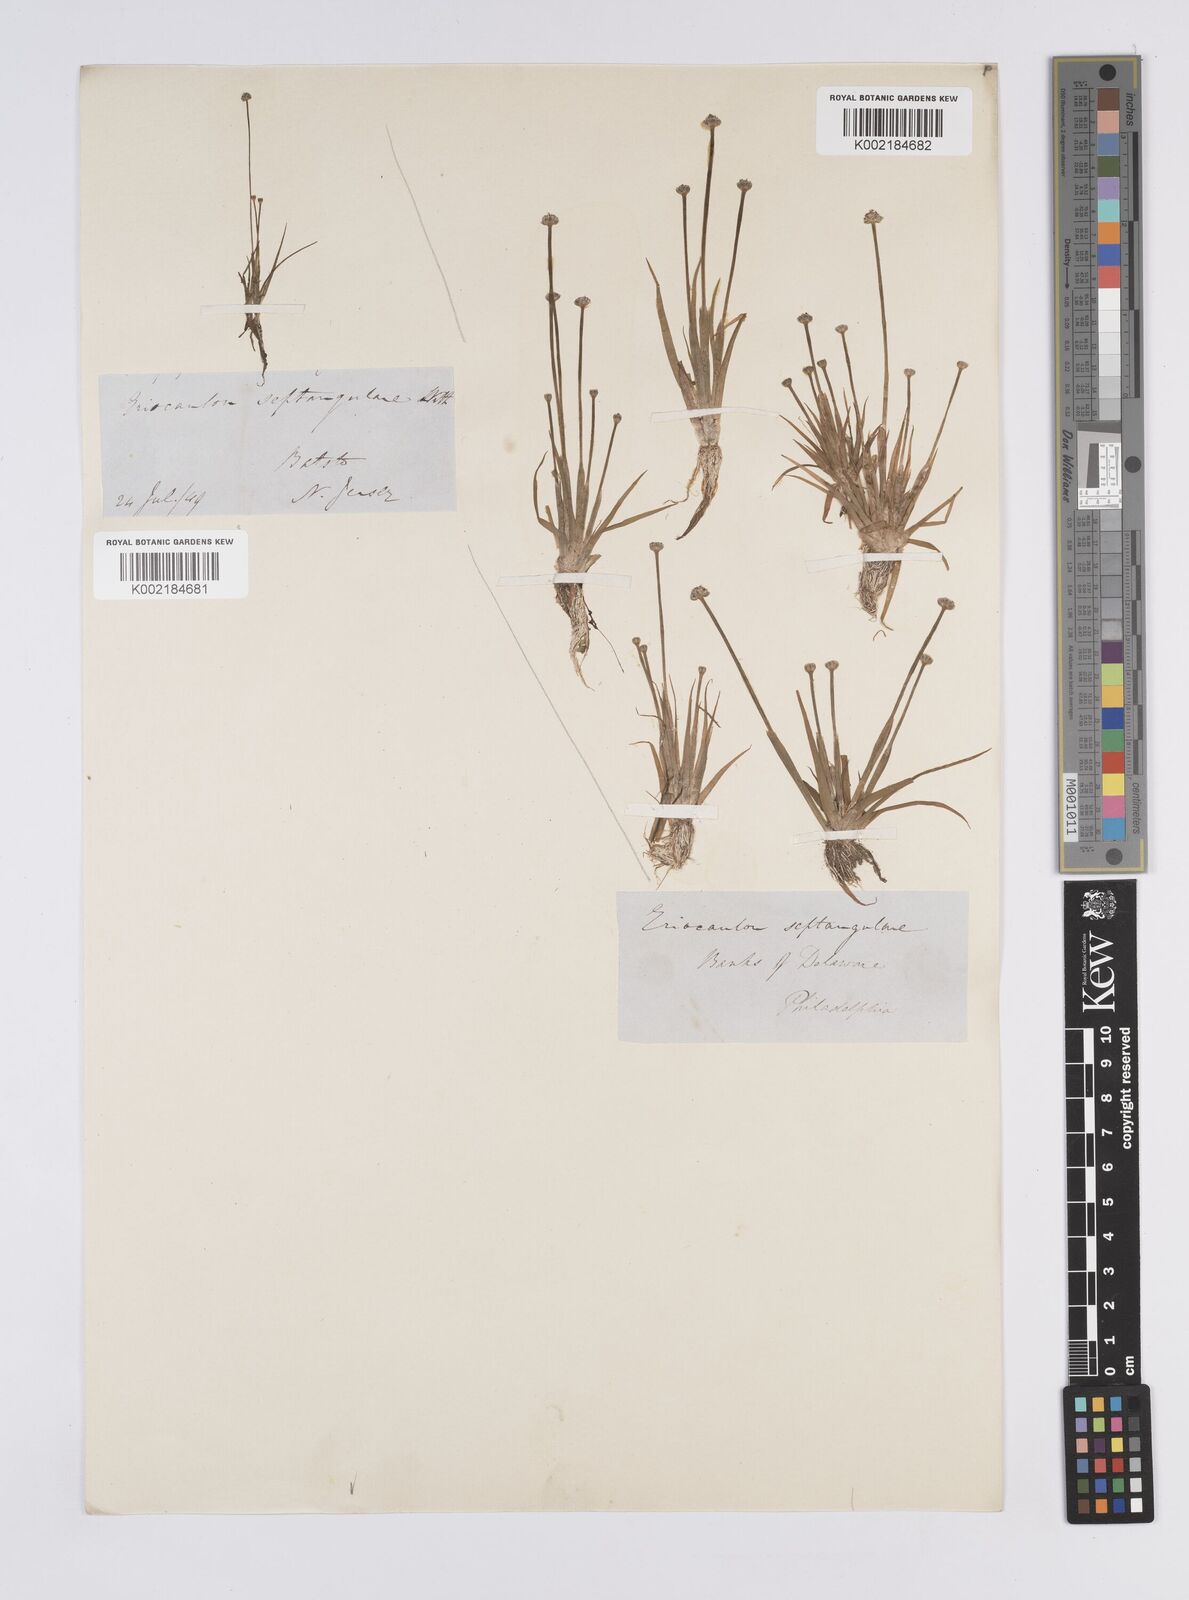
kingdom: Plantae
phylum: Tracheophyta
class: Liliopsida
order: Poales
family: Eriocaulaceae
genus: Eriocaulon
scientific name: Eriocaulon aquaticum
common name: Pipewort
